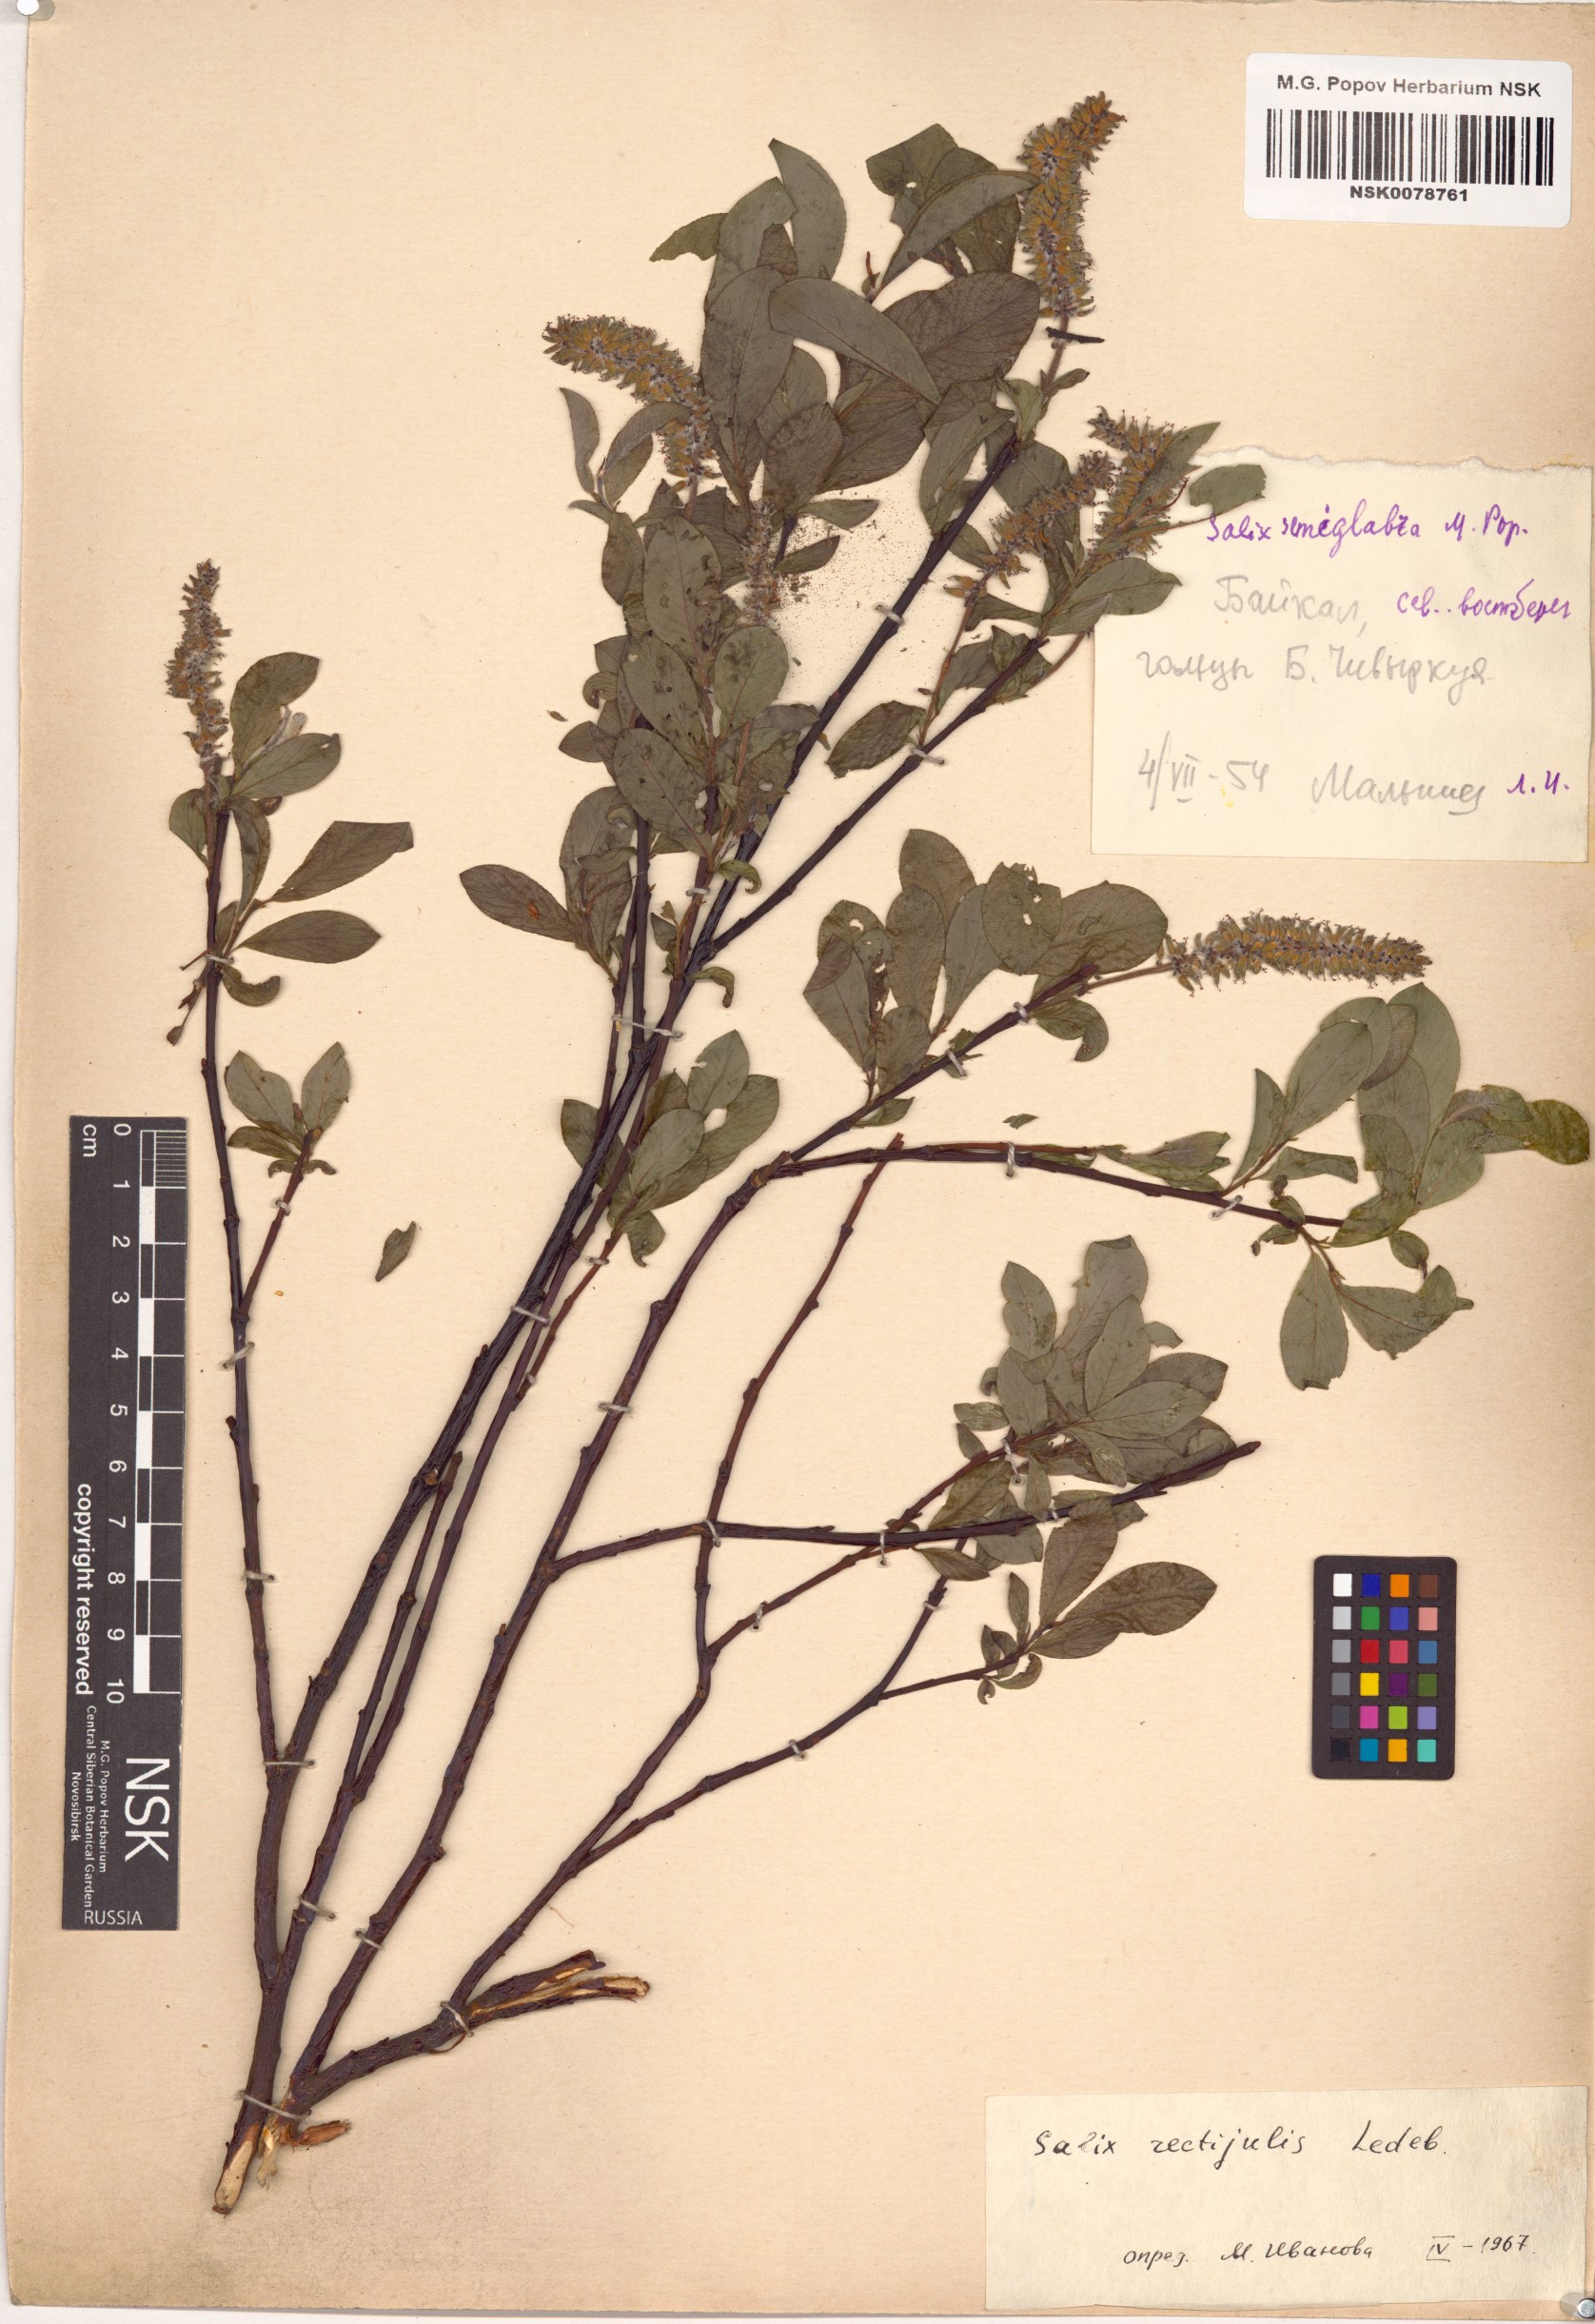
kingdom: Plantae
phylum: Tracheophyta
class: Magnoliopsida
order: Malpighiales
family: Salicaceae
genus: Salix
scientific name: Salix rectijulis
